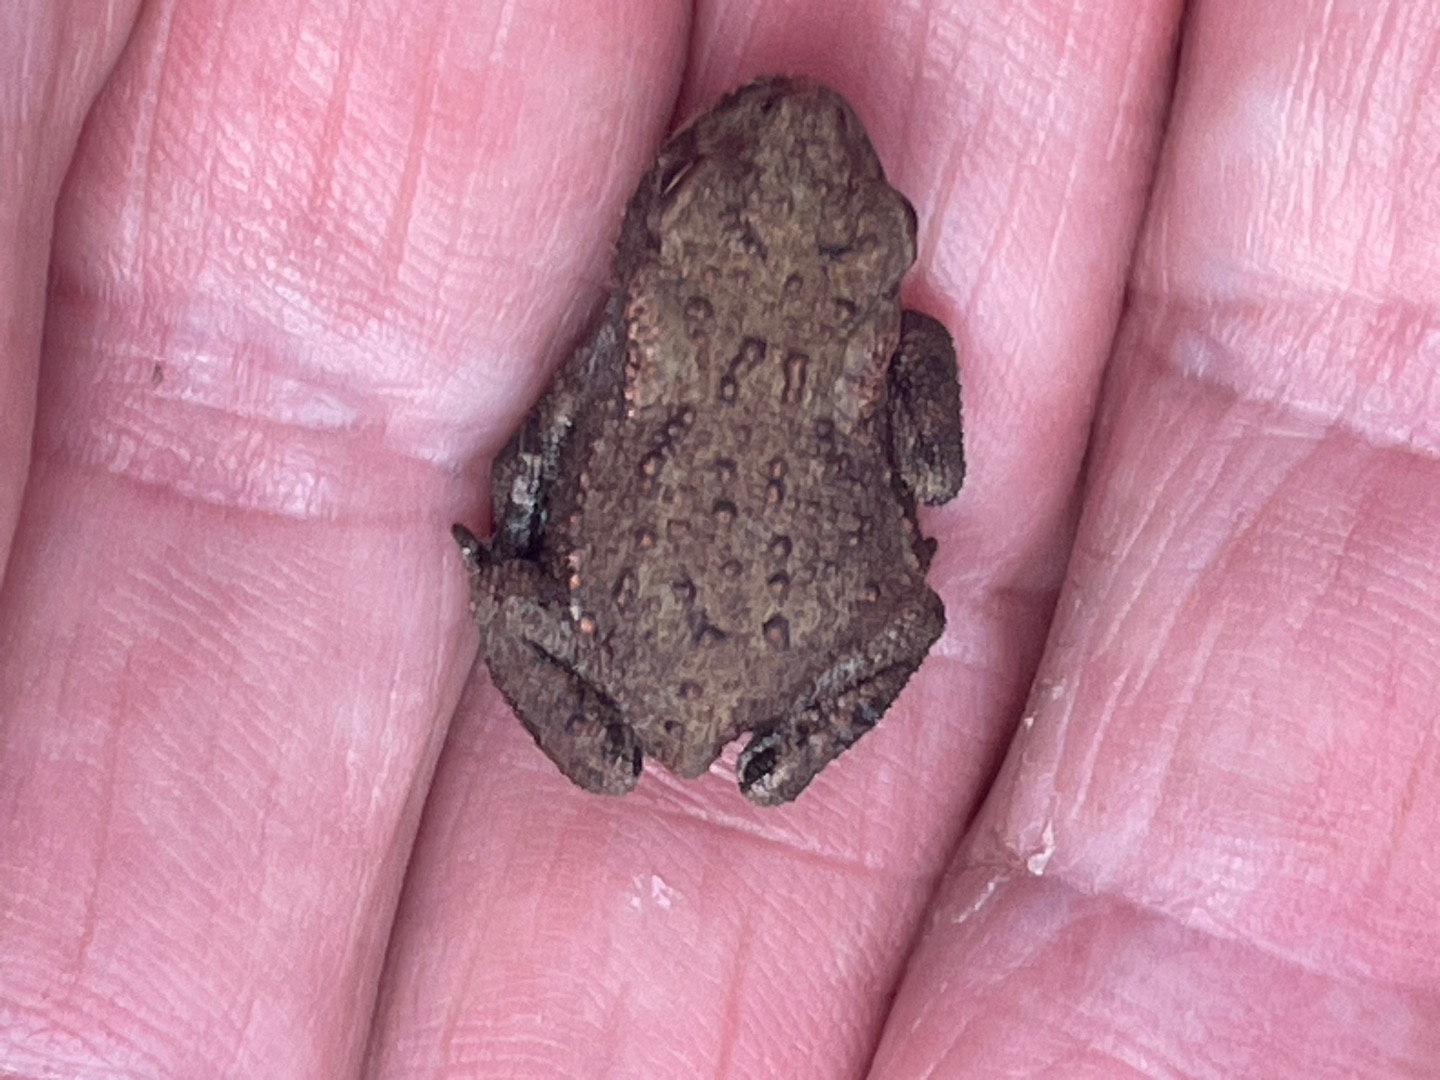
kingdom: Animalia
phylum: Chordata
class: Amphibia
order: Anura
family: Bufonidae
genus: Bufo
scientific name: Bufo bufo
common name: Skrubtudse
